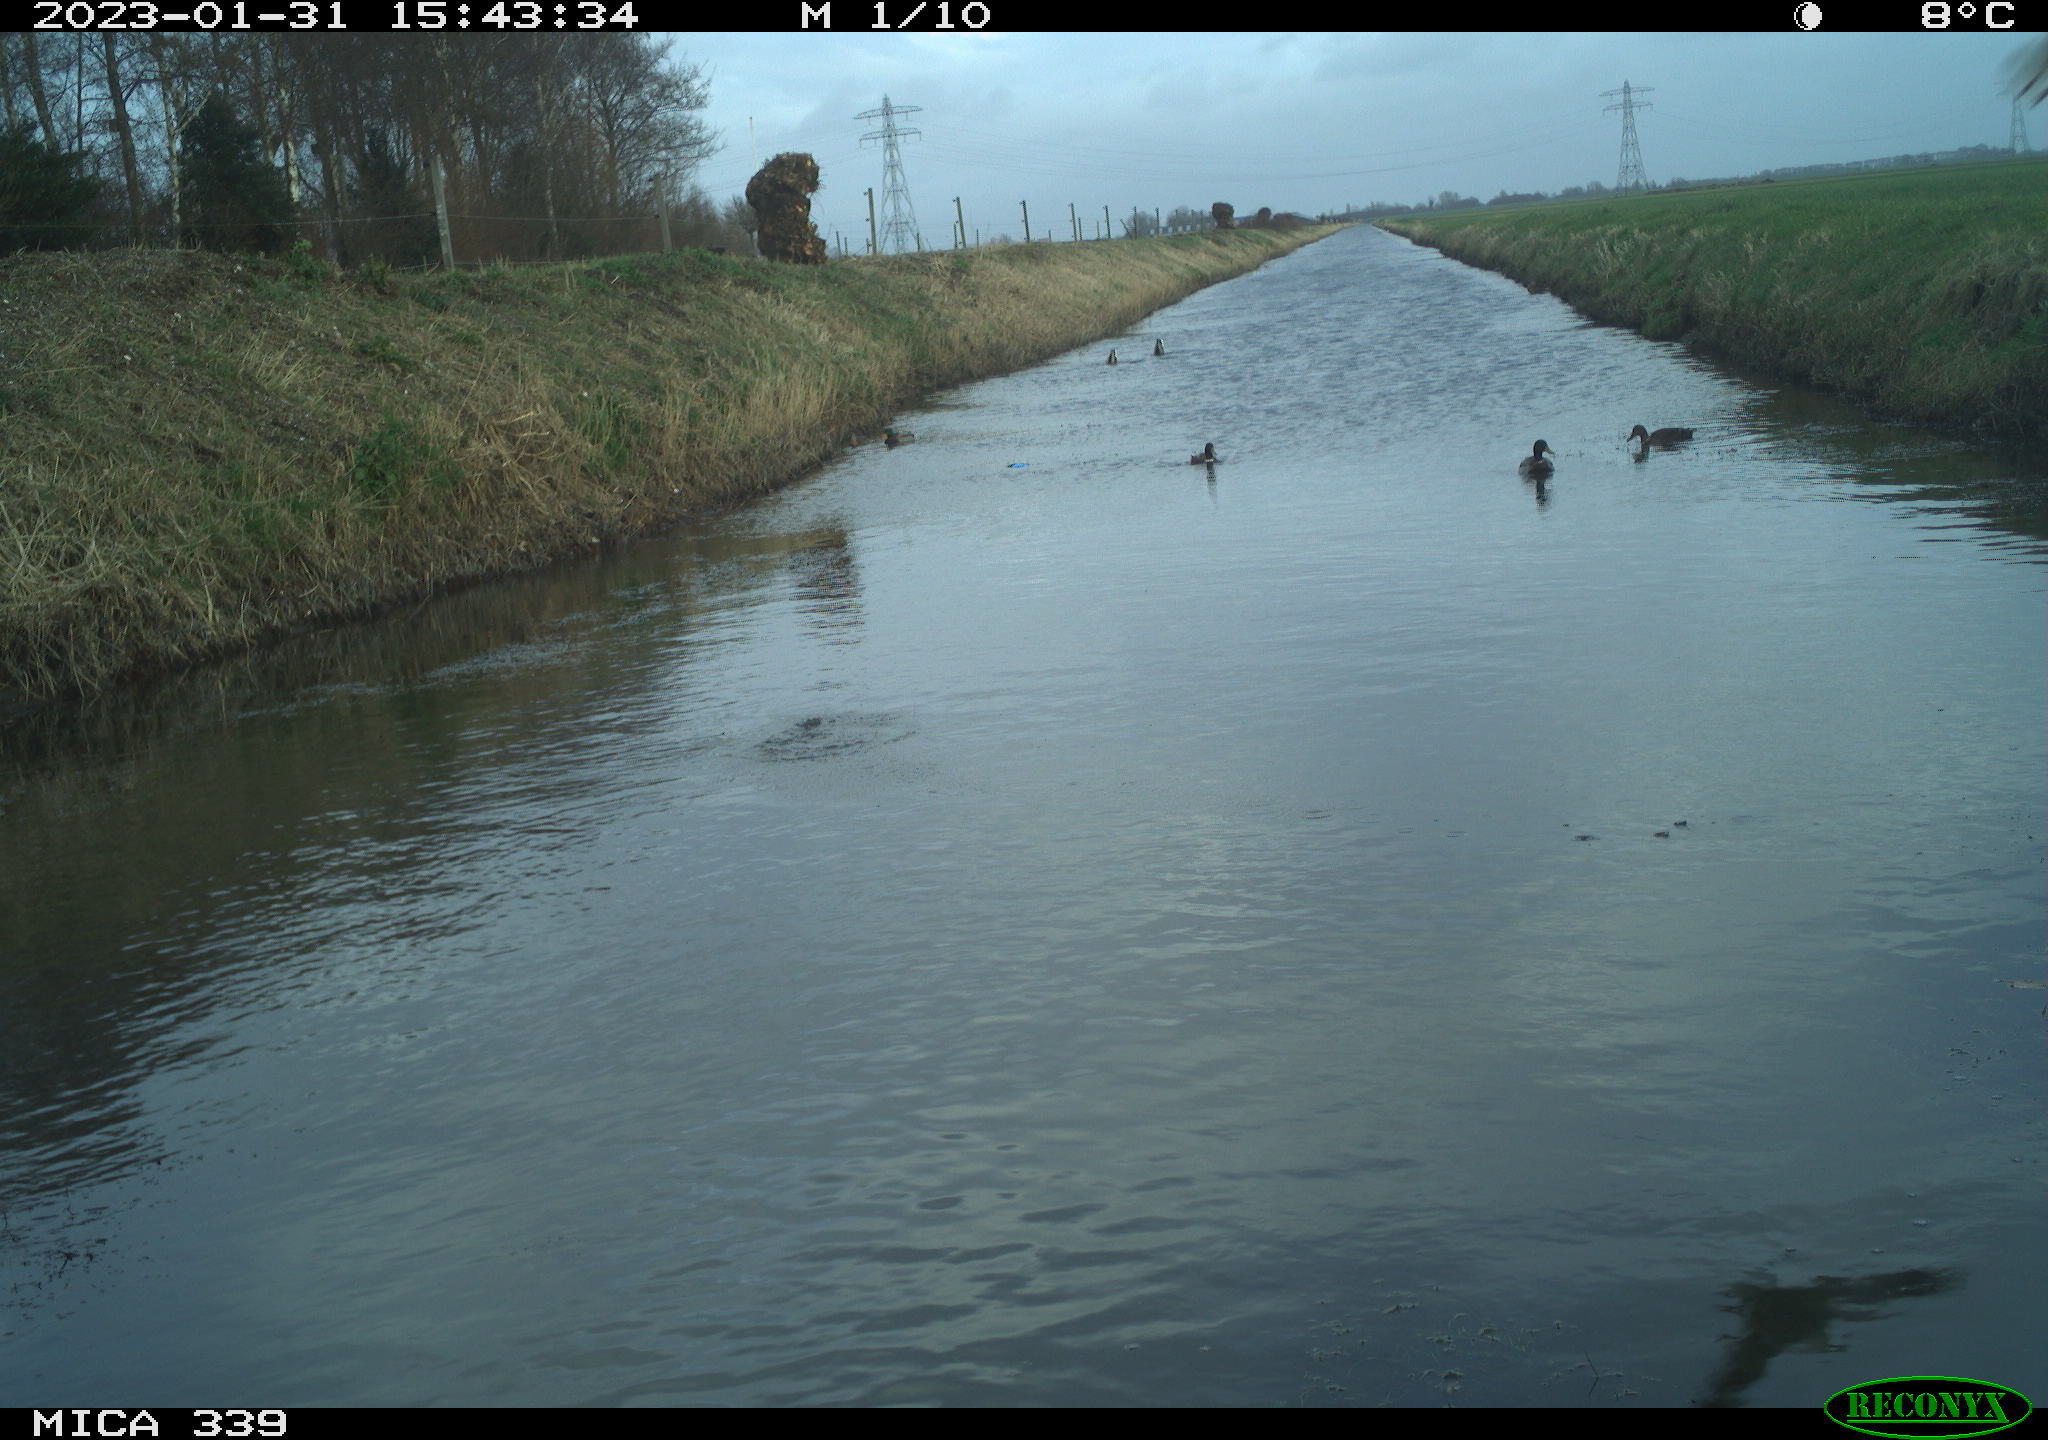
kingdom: Animalia
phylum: Chordata
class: Aves
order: Anseriformes
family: Anatidae
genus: Anas
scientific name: Anas
